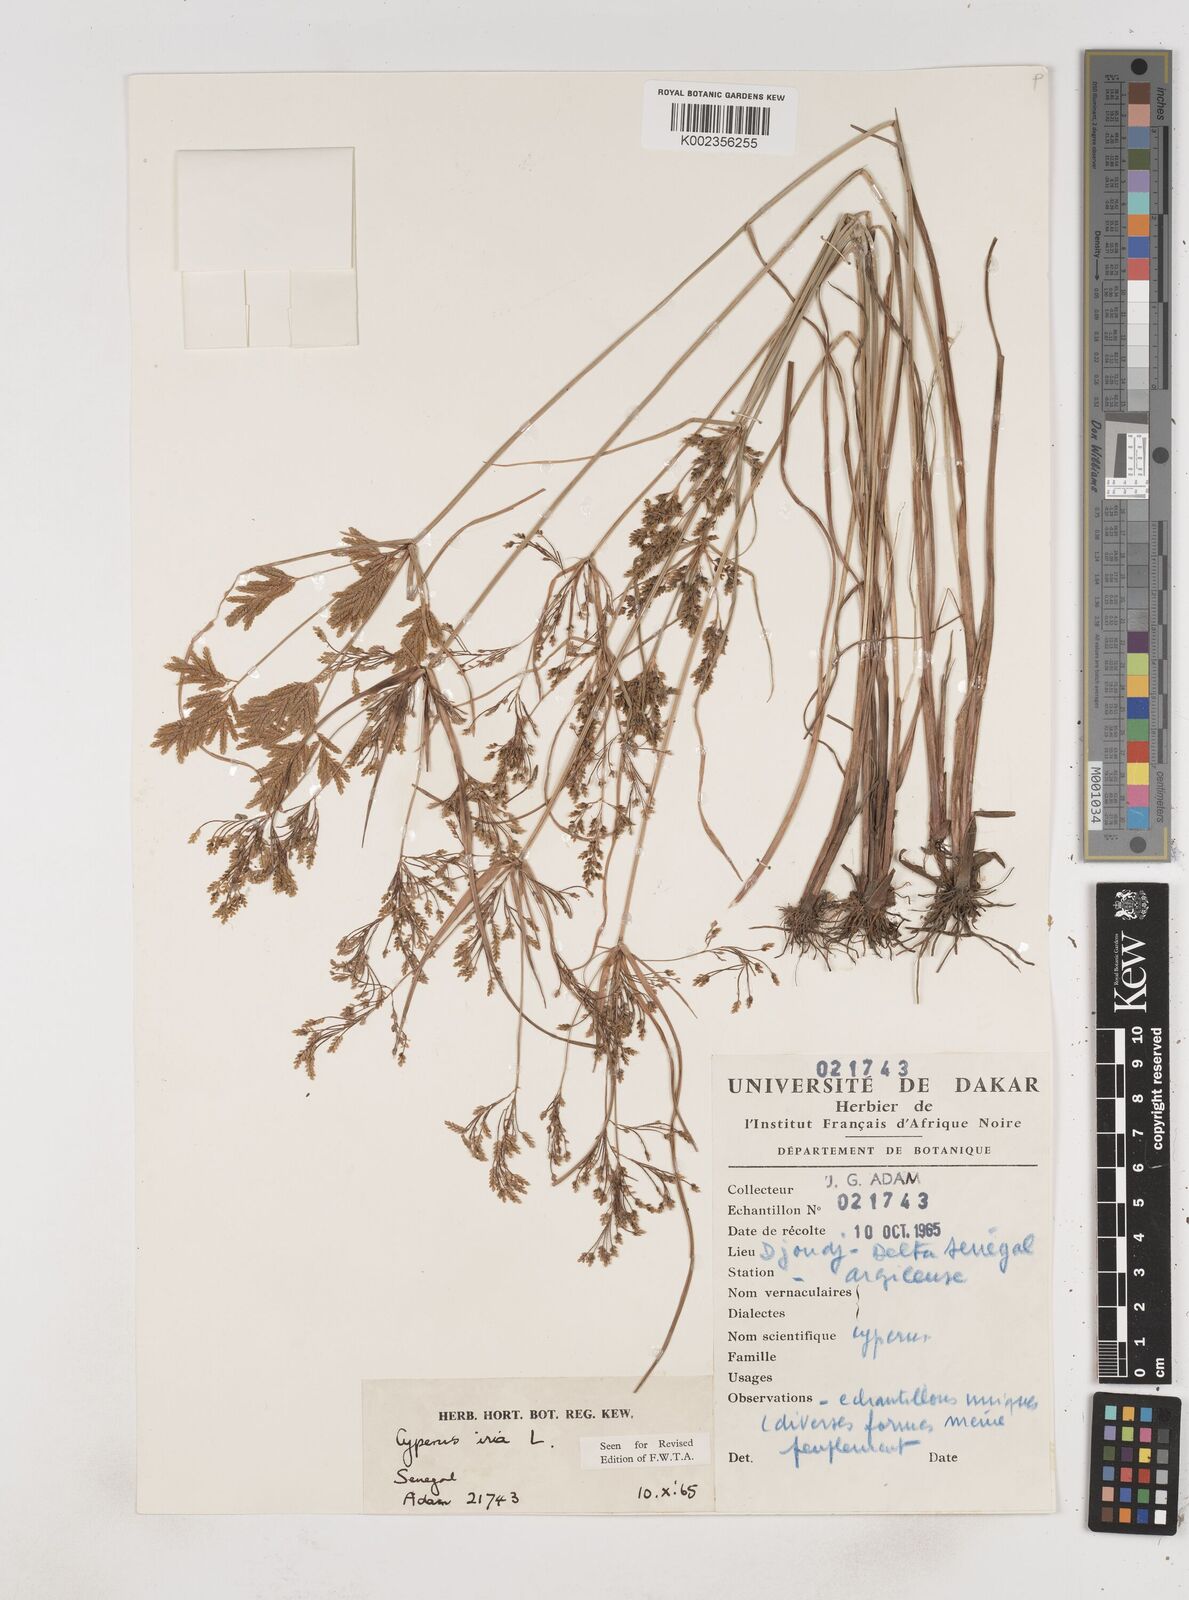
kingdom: Plantae
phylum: Tracheophyta
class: Liliopsida
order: Poales
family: Cyperaceae
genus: Cyperus
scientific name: Cyperus iria
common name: Ricefield flatsedge
